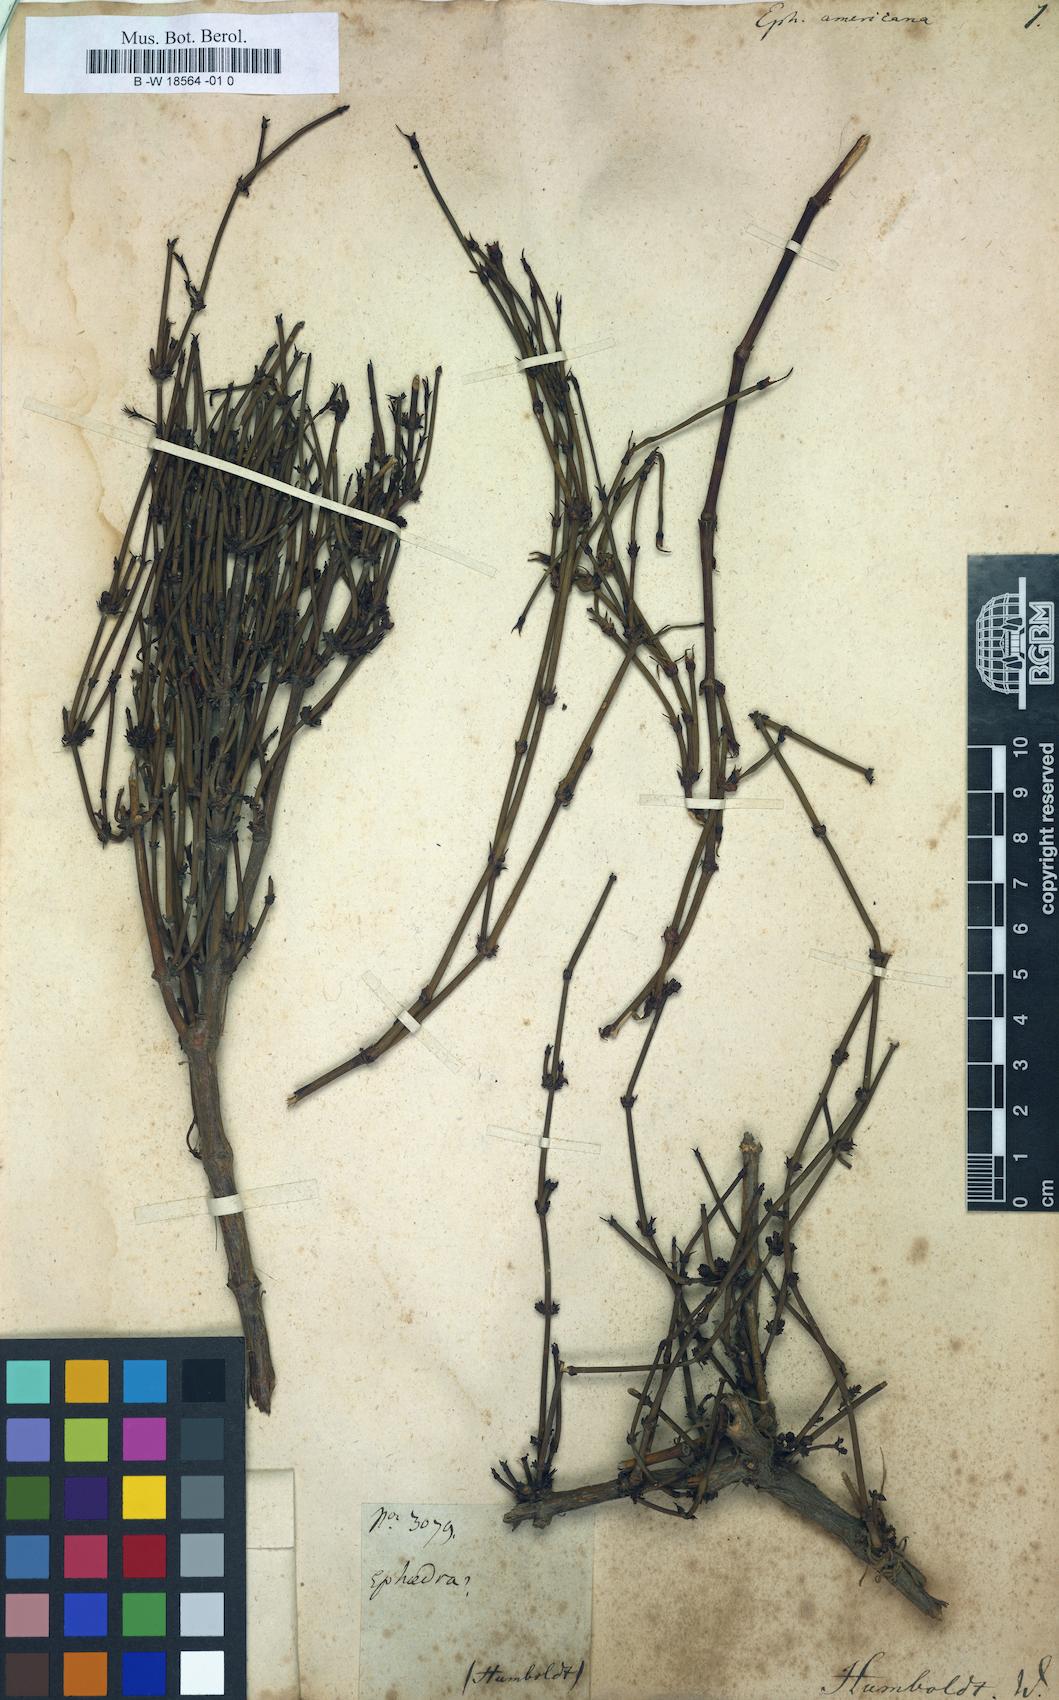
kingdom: Plantae
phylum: Tracheophyta
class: Gnetopsida
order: Ephedrales
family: Ephedraceae
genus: Ephedra
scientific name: Ephedra americana
